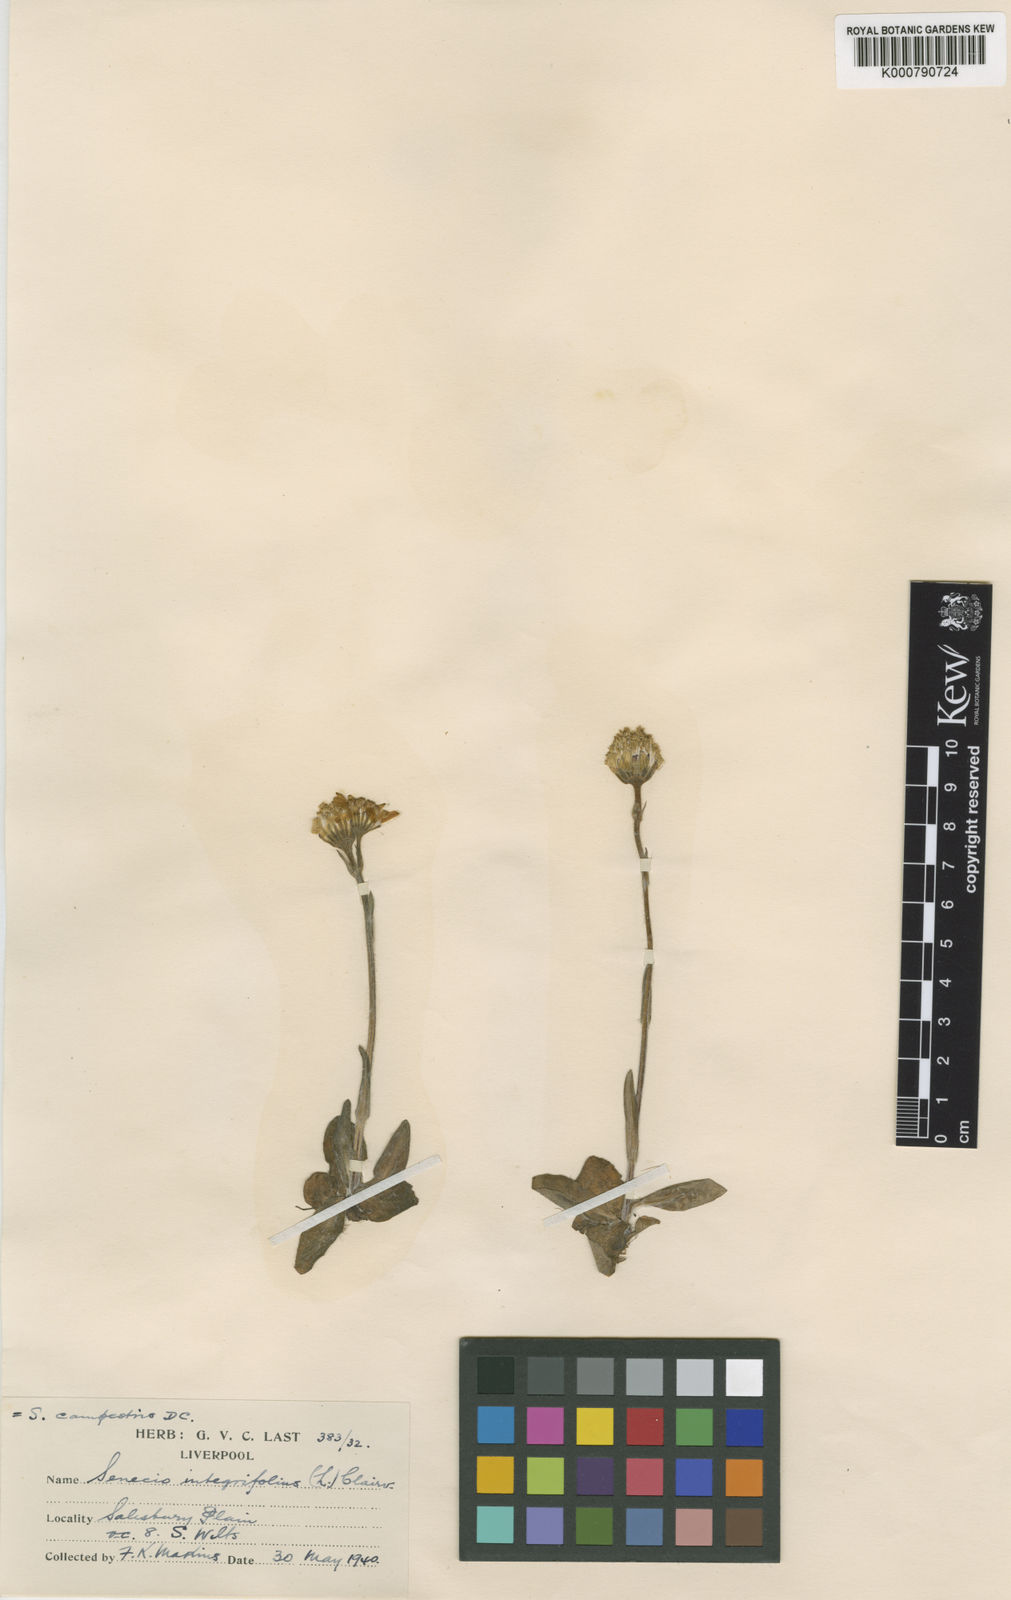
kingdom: Plantae
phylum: Tracheophyta
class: Magnoliopsida
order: Asterales
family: Asteraceae
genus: Tephroseris
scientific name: Tephroseris integrifolia
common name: Field fleawort
